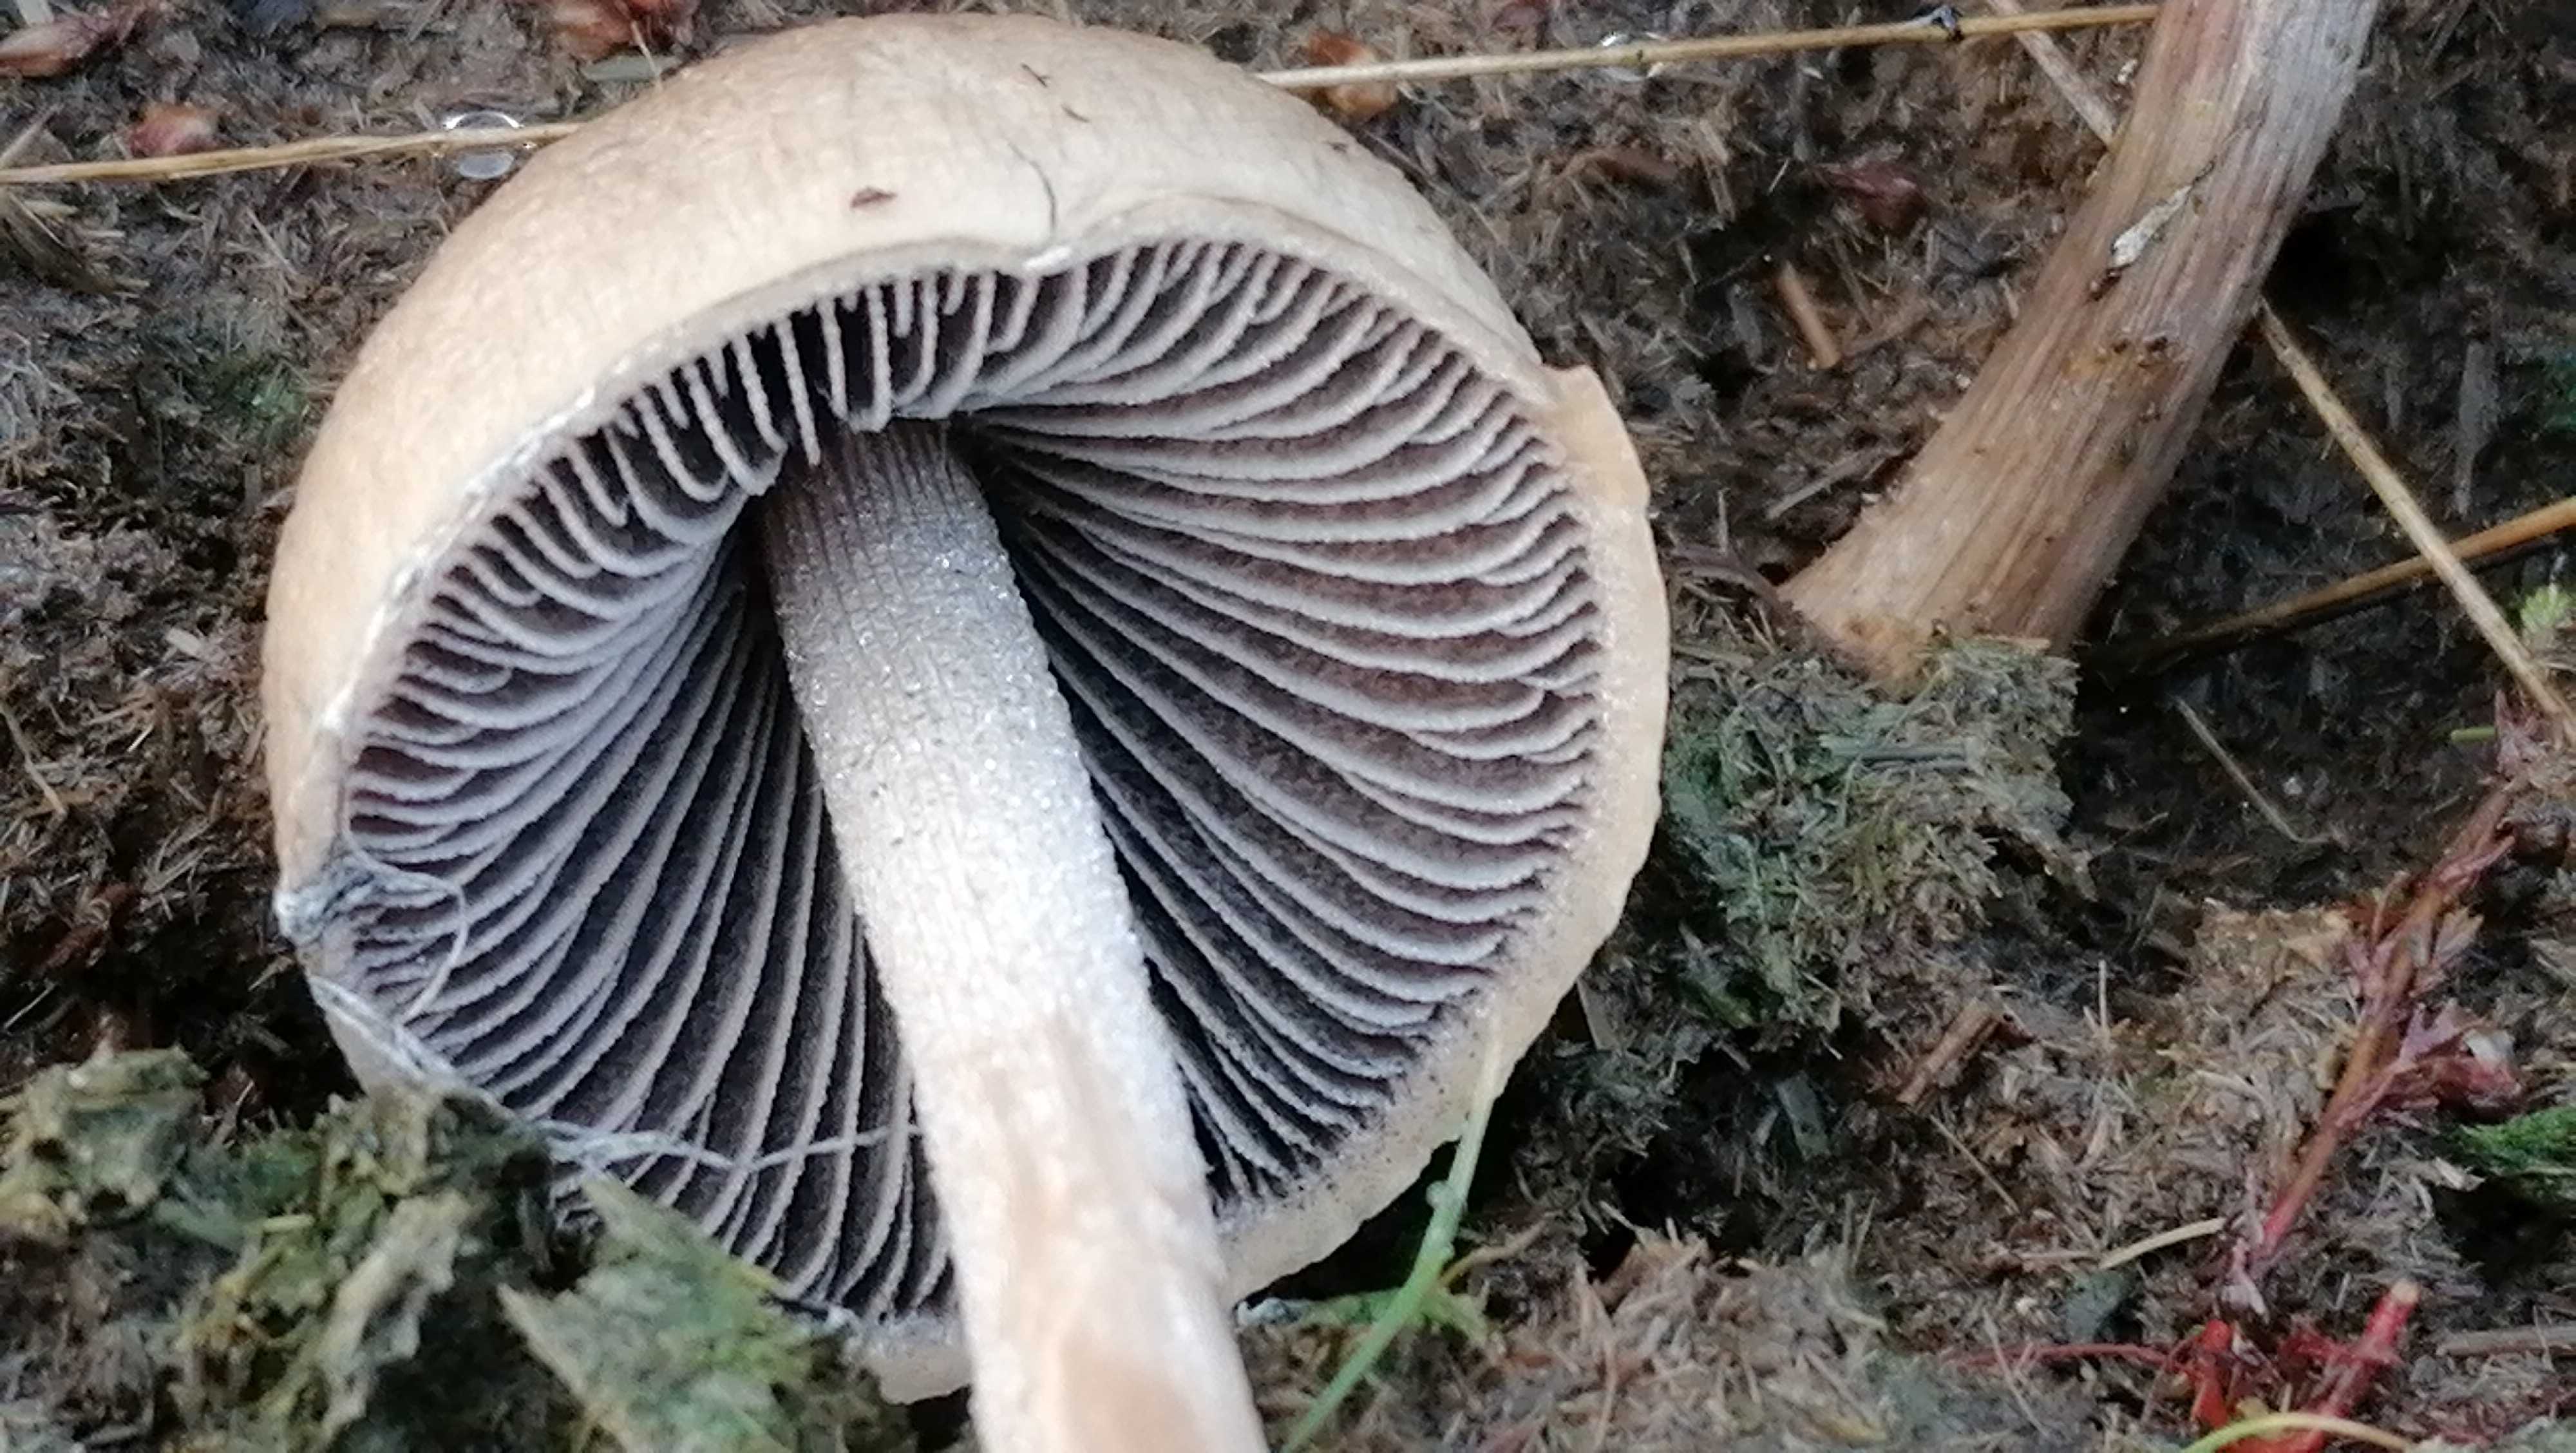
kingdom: Fungi
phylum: Basidiomycota
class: Agaricomycetes
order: Agaricales
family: Bolbitiaceae
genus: Panaeolus
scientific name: Panaeolus
